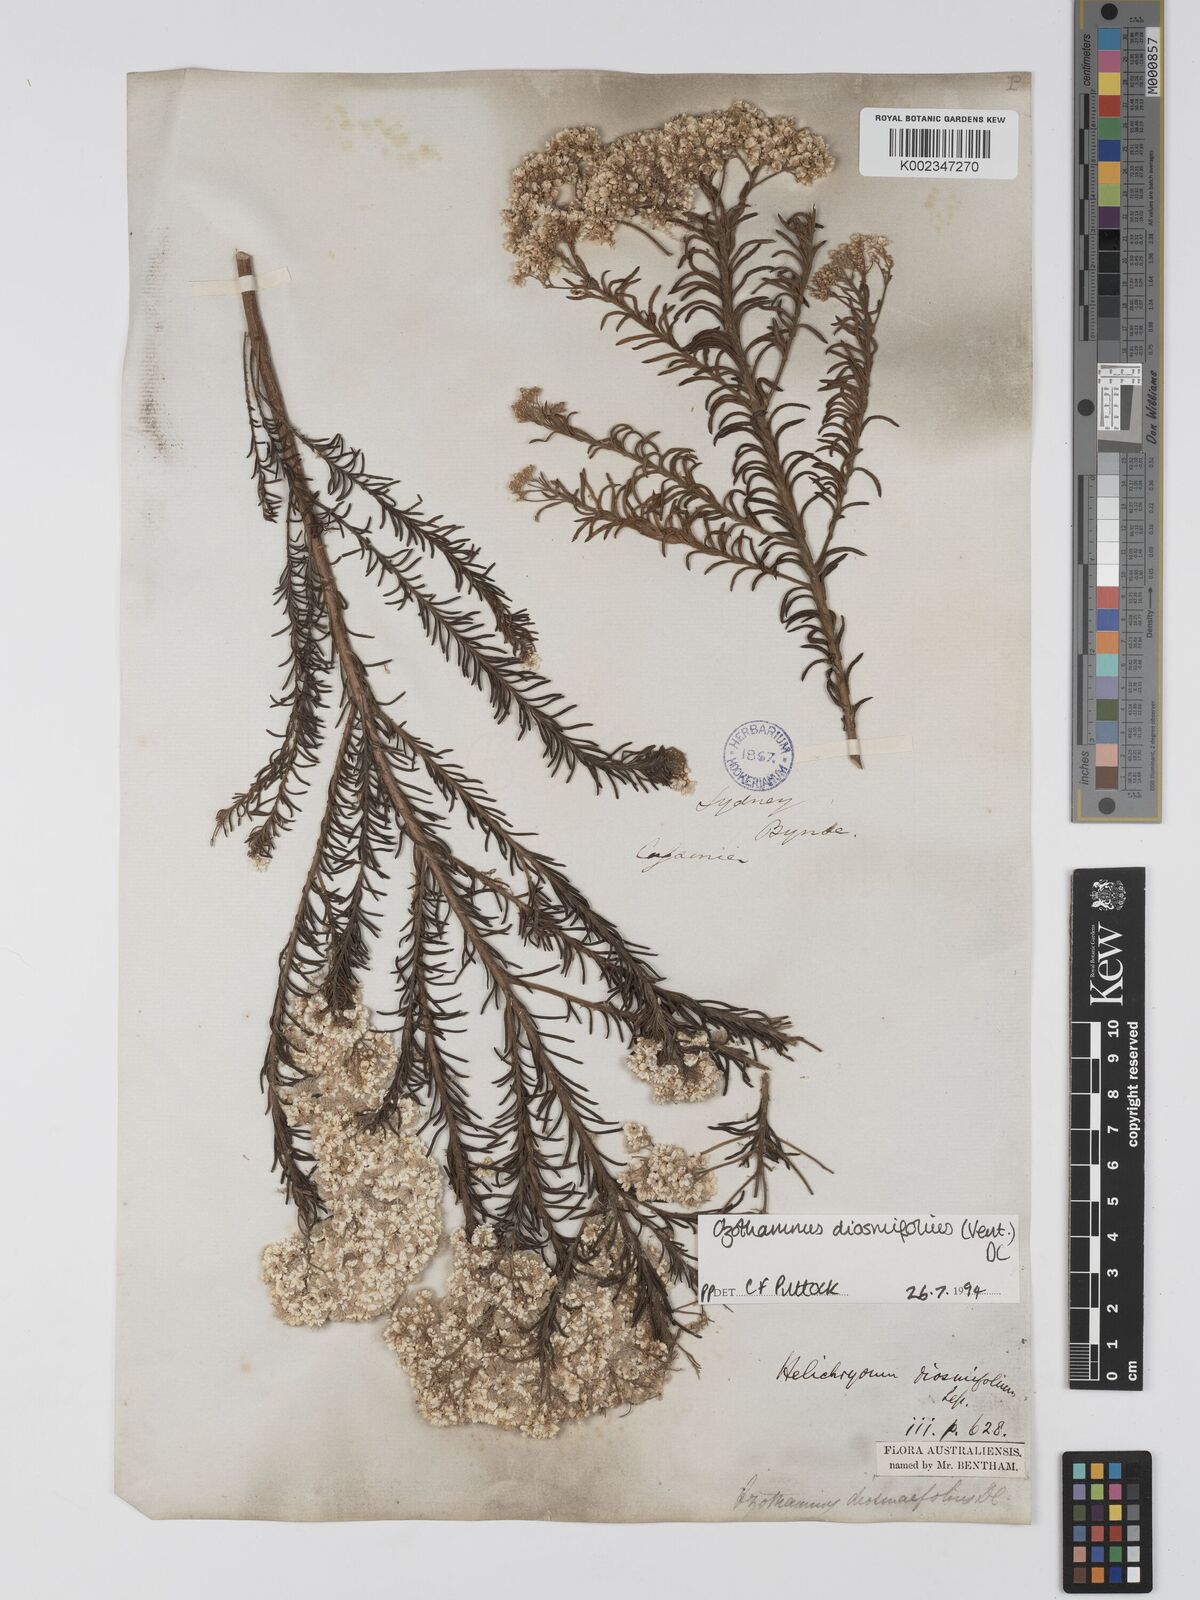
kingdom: Plantae
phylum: Tracheophyta
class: Magnoliopsida
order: Asterales
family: Asteraceae
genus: Ozothamnus
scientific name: Ozothamnus diosmifolius
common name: White-dogwood
